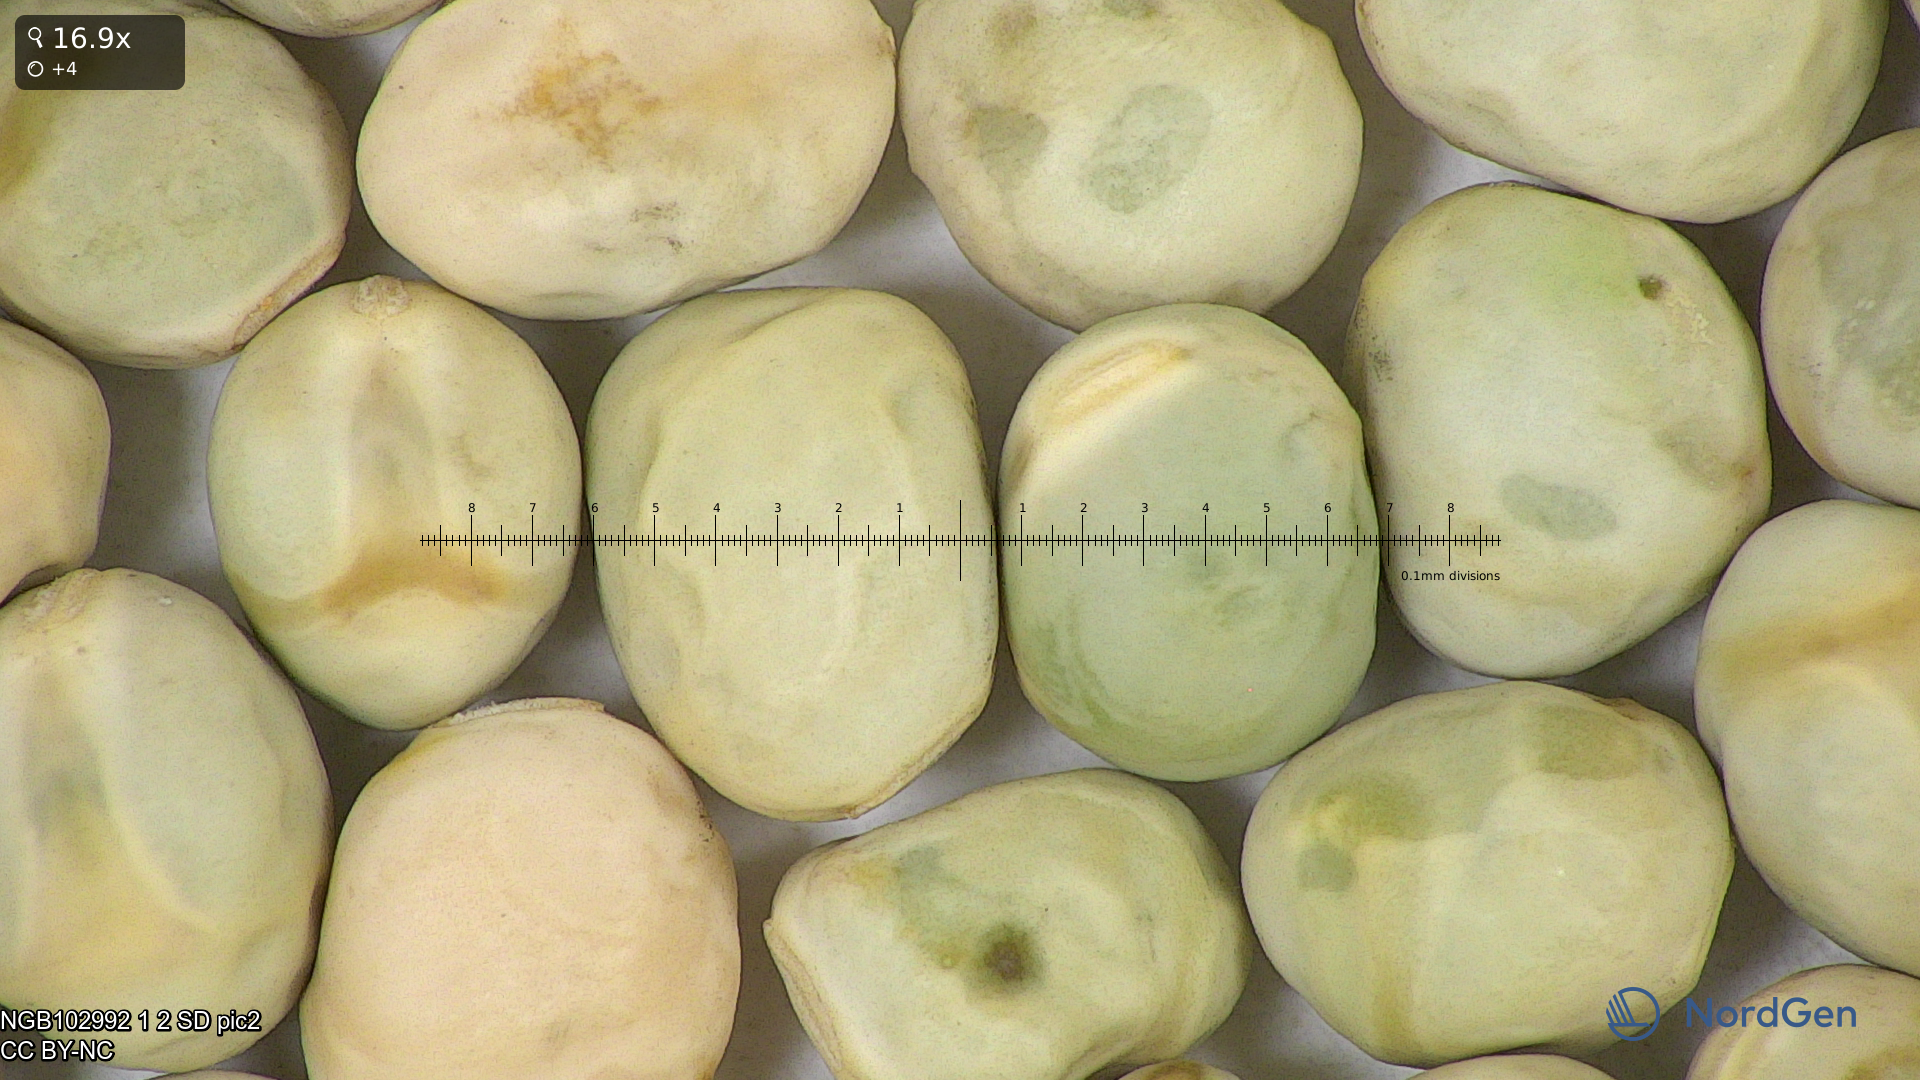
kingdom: Plantae
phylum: Tracheophyta
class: Magnoliopsida
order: Fabales
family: Fabaceae
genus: Lathyrus
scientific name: Lathyrus oleraceus
